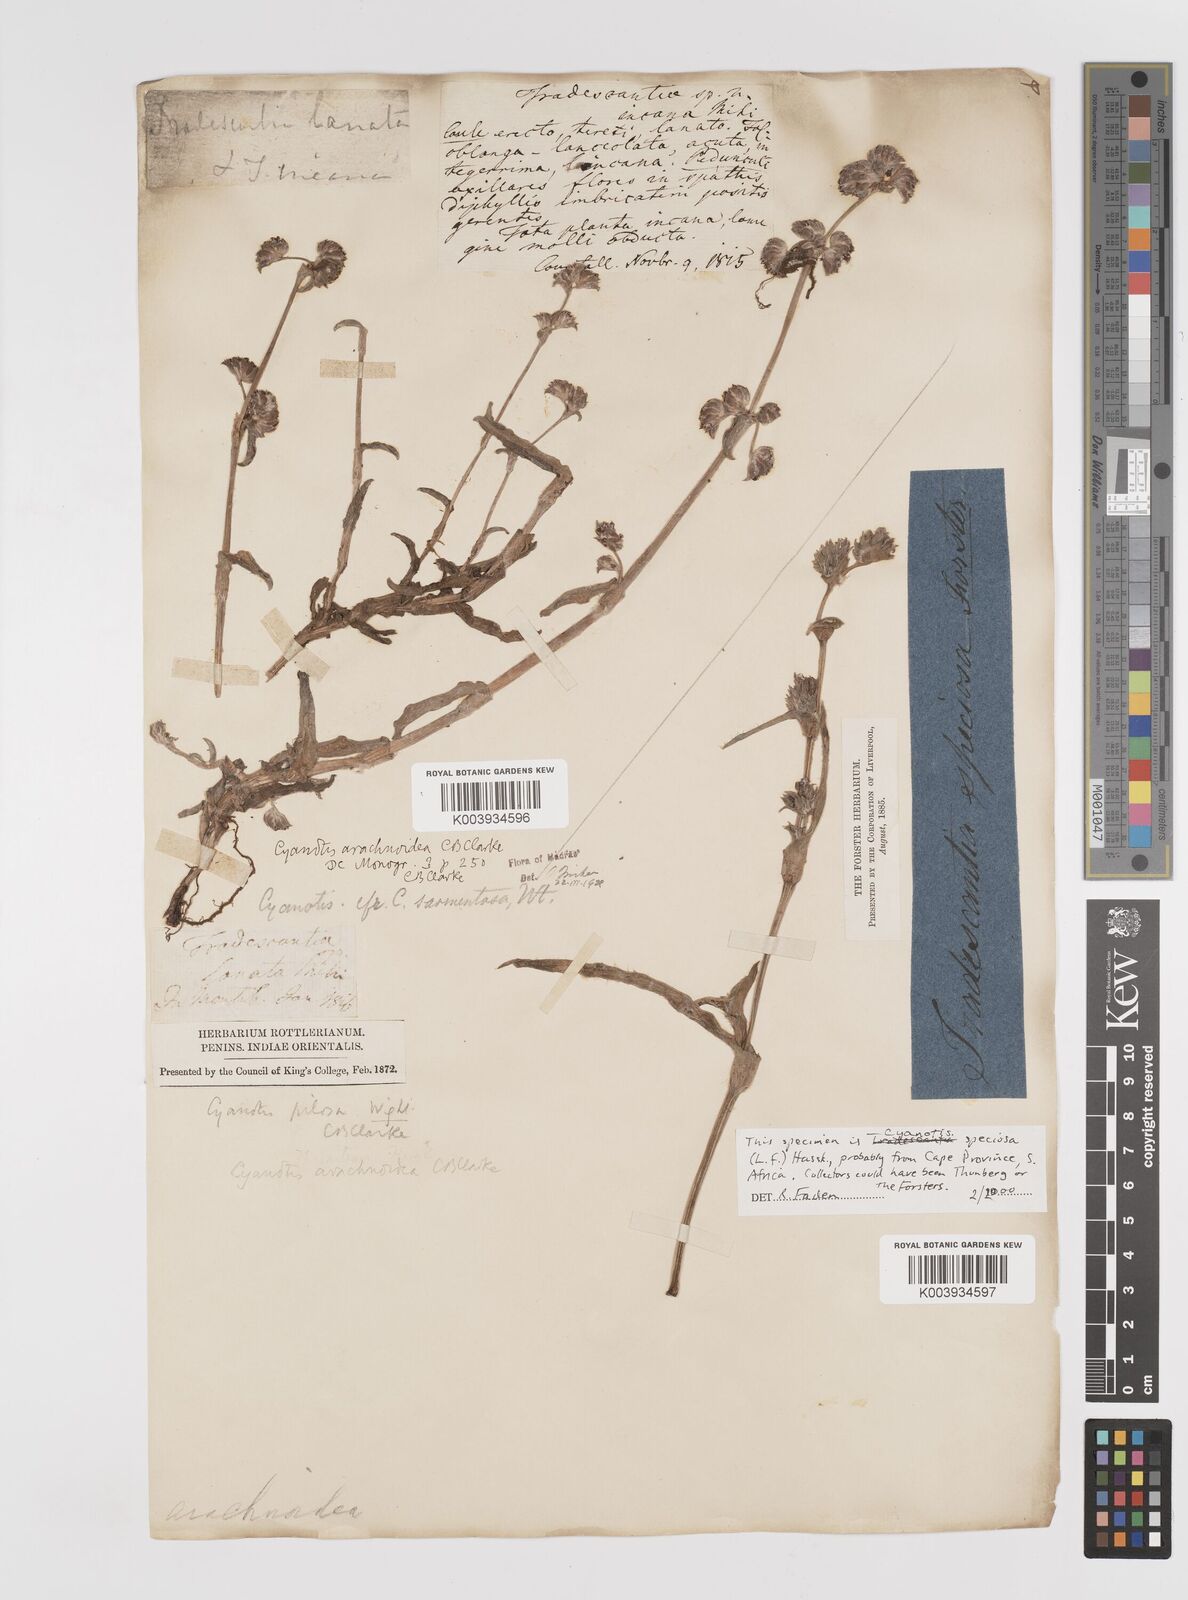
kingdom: Plantae
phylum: Tracheophyta
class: Liliopsida
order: Commelinales
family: Commelinaceae
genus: Cyanotis
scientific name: Cyanotis arachnoidea
